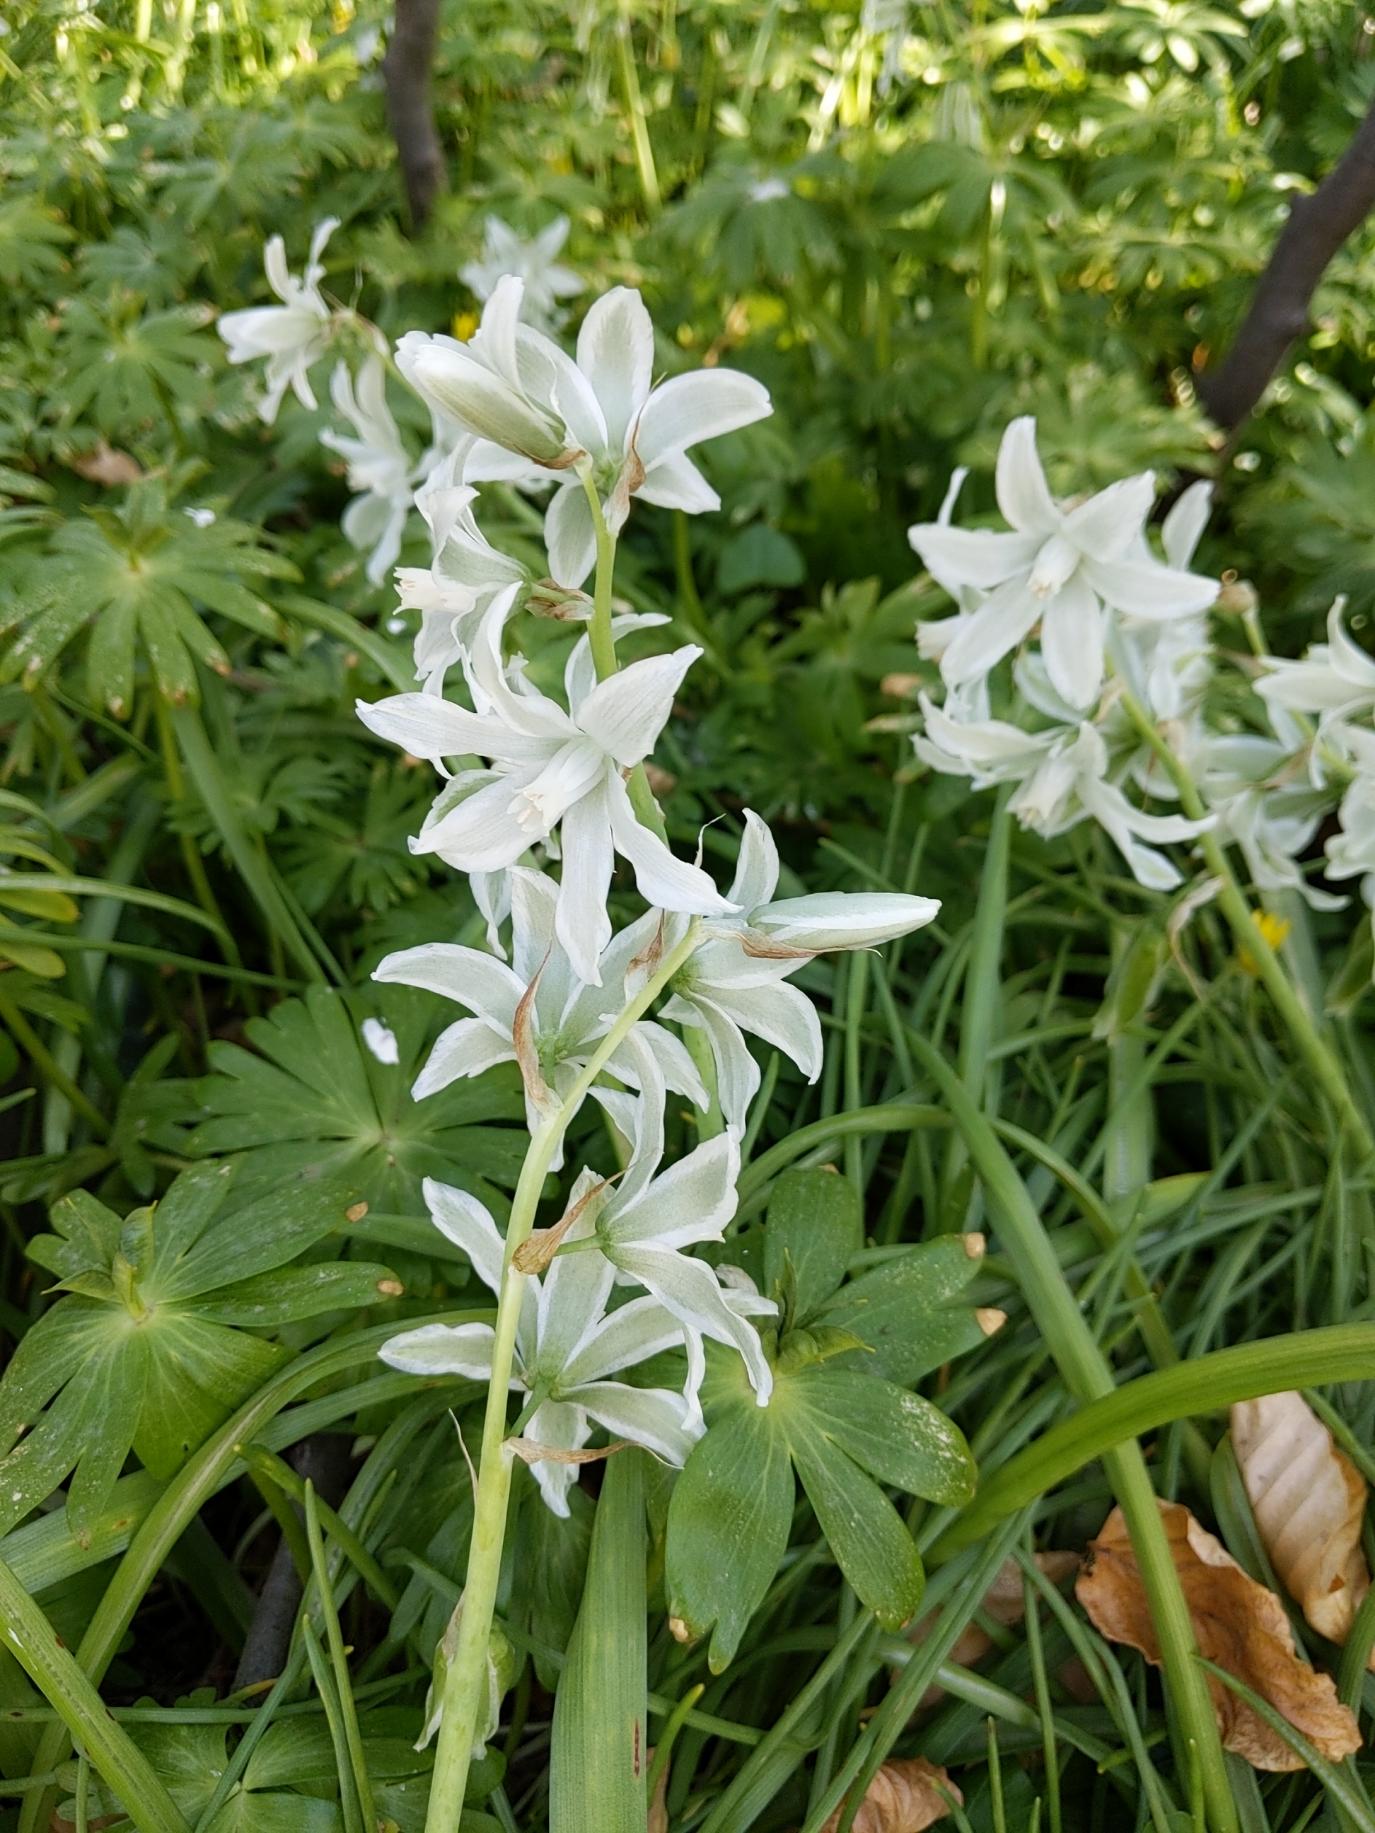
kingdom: Plantae
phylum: Tracheophyta
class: Liliopsida
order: Asparagales
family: Asparagaceae
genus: Ornithogalum
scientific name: Ornithogalum nutans
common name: Nikkende fuglemælk
